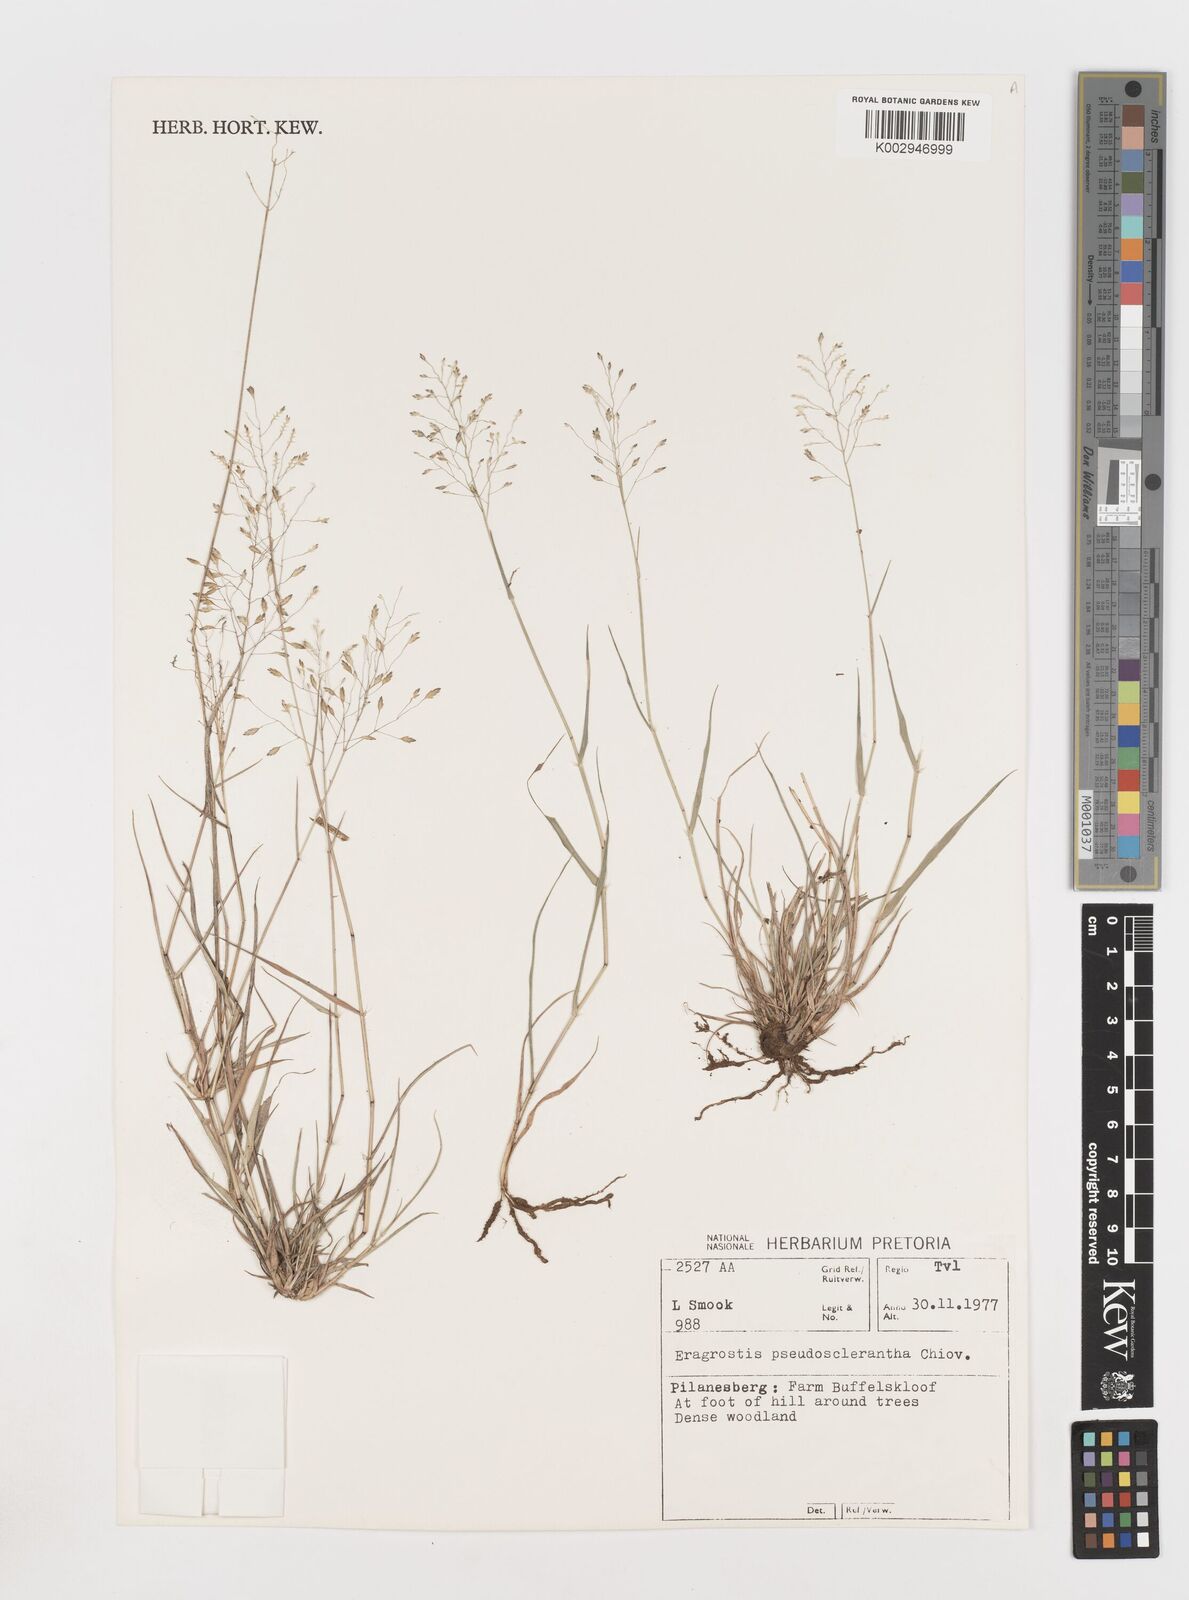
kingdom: Plantae
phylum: Tracheophyta
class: Liliopsida
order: Poales
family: Poaceae
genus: Eragrostis
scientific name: Eragrostis patentipilosa
